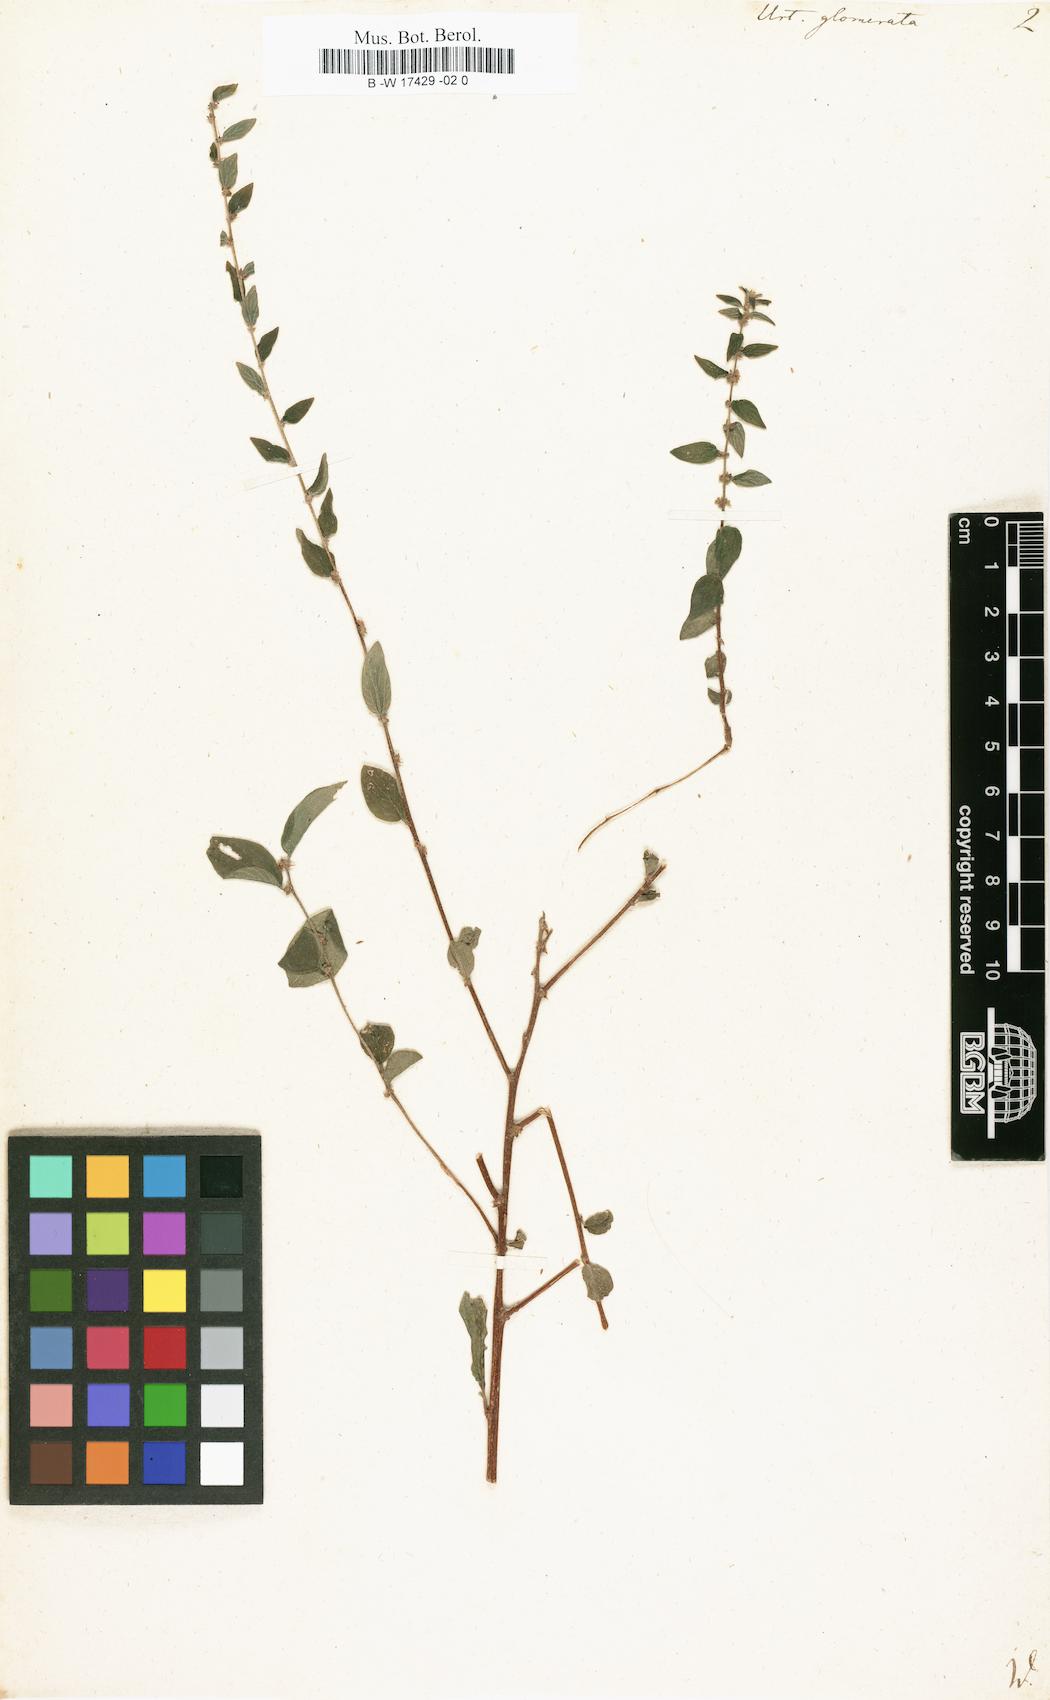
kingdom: Plantae
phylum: Tracheophyta
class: Magnoliopsida
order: Rosales
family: Urticaceae
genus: Pouzolzia
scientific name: Pouzolzia zeylanica
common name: Graceful pouzolzsbush
